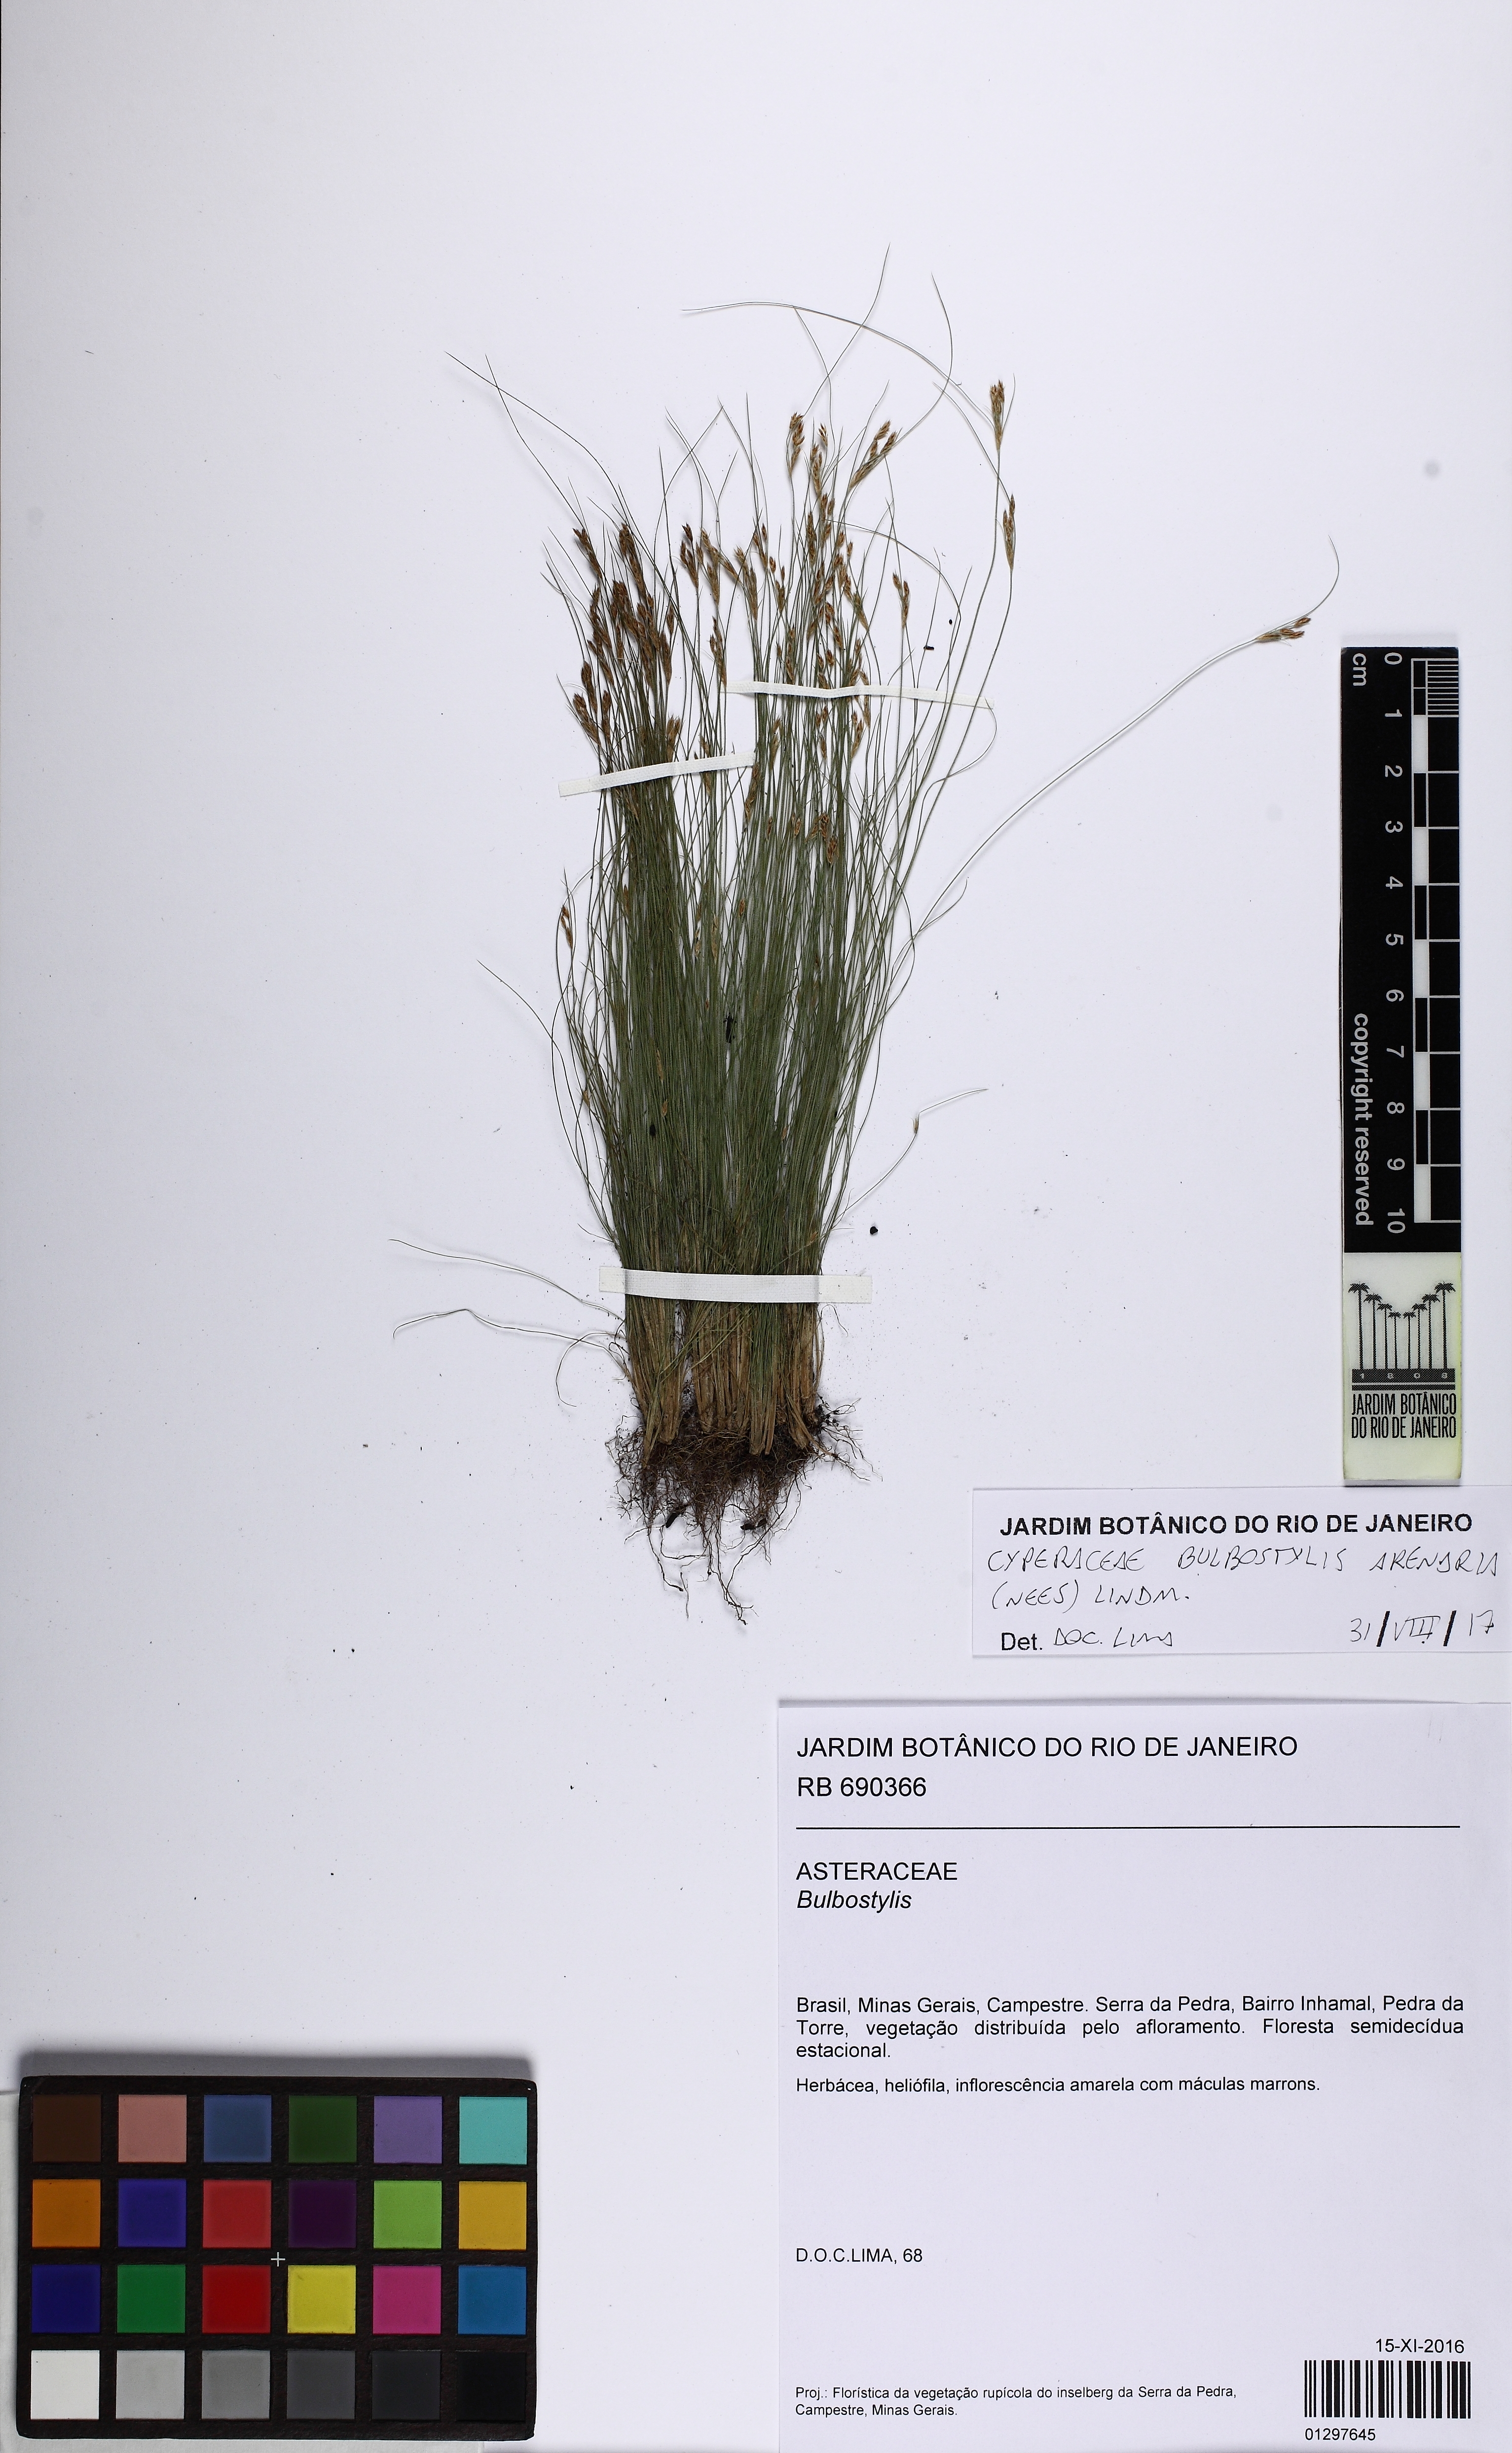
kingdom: Plantae
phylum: Tracheophyta
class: Liliopsida
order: Poales
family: Cyperaceae
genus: Bulbostylis
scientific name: Bulbostylis juncoides
